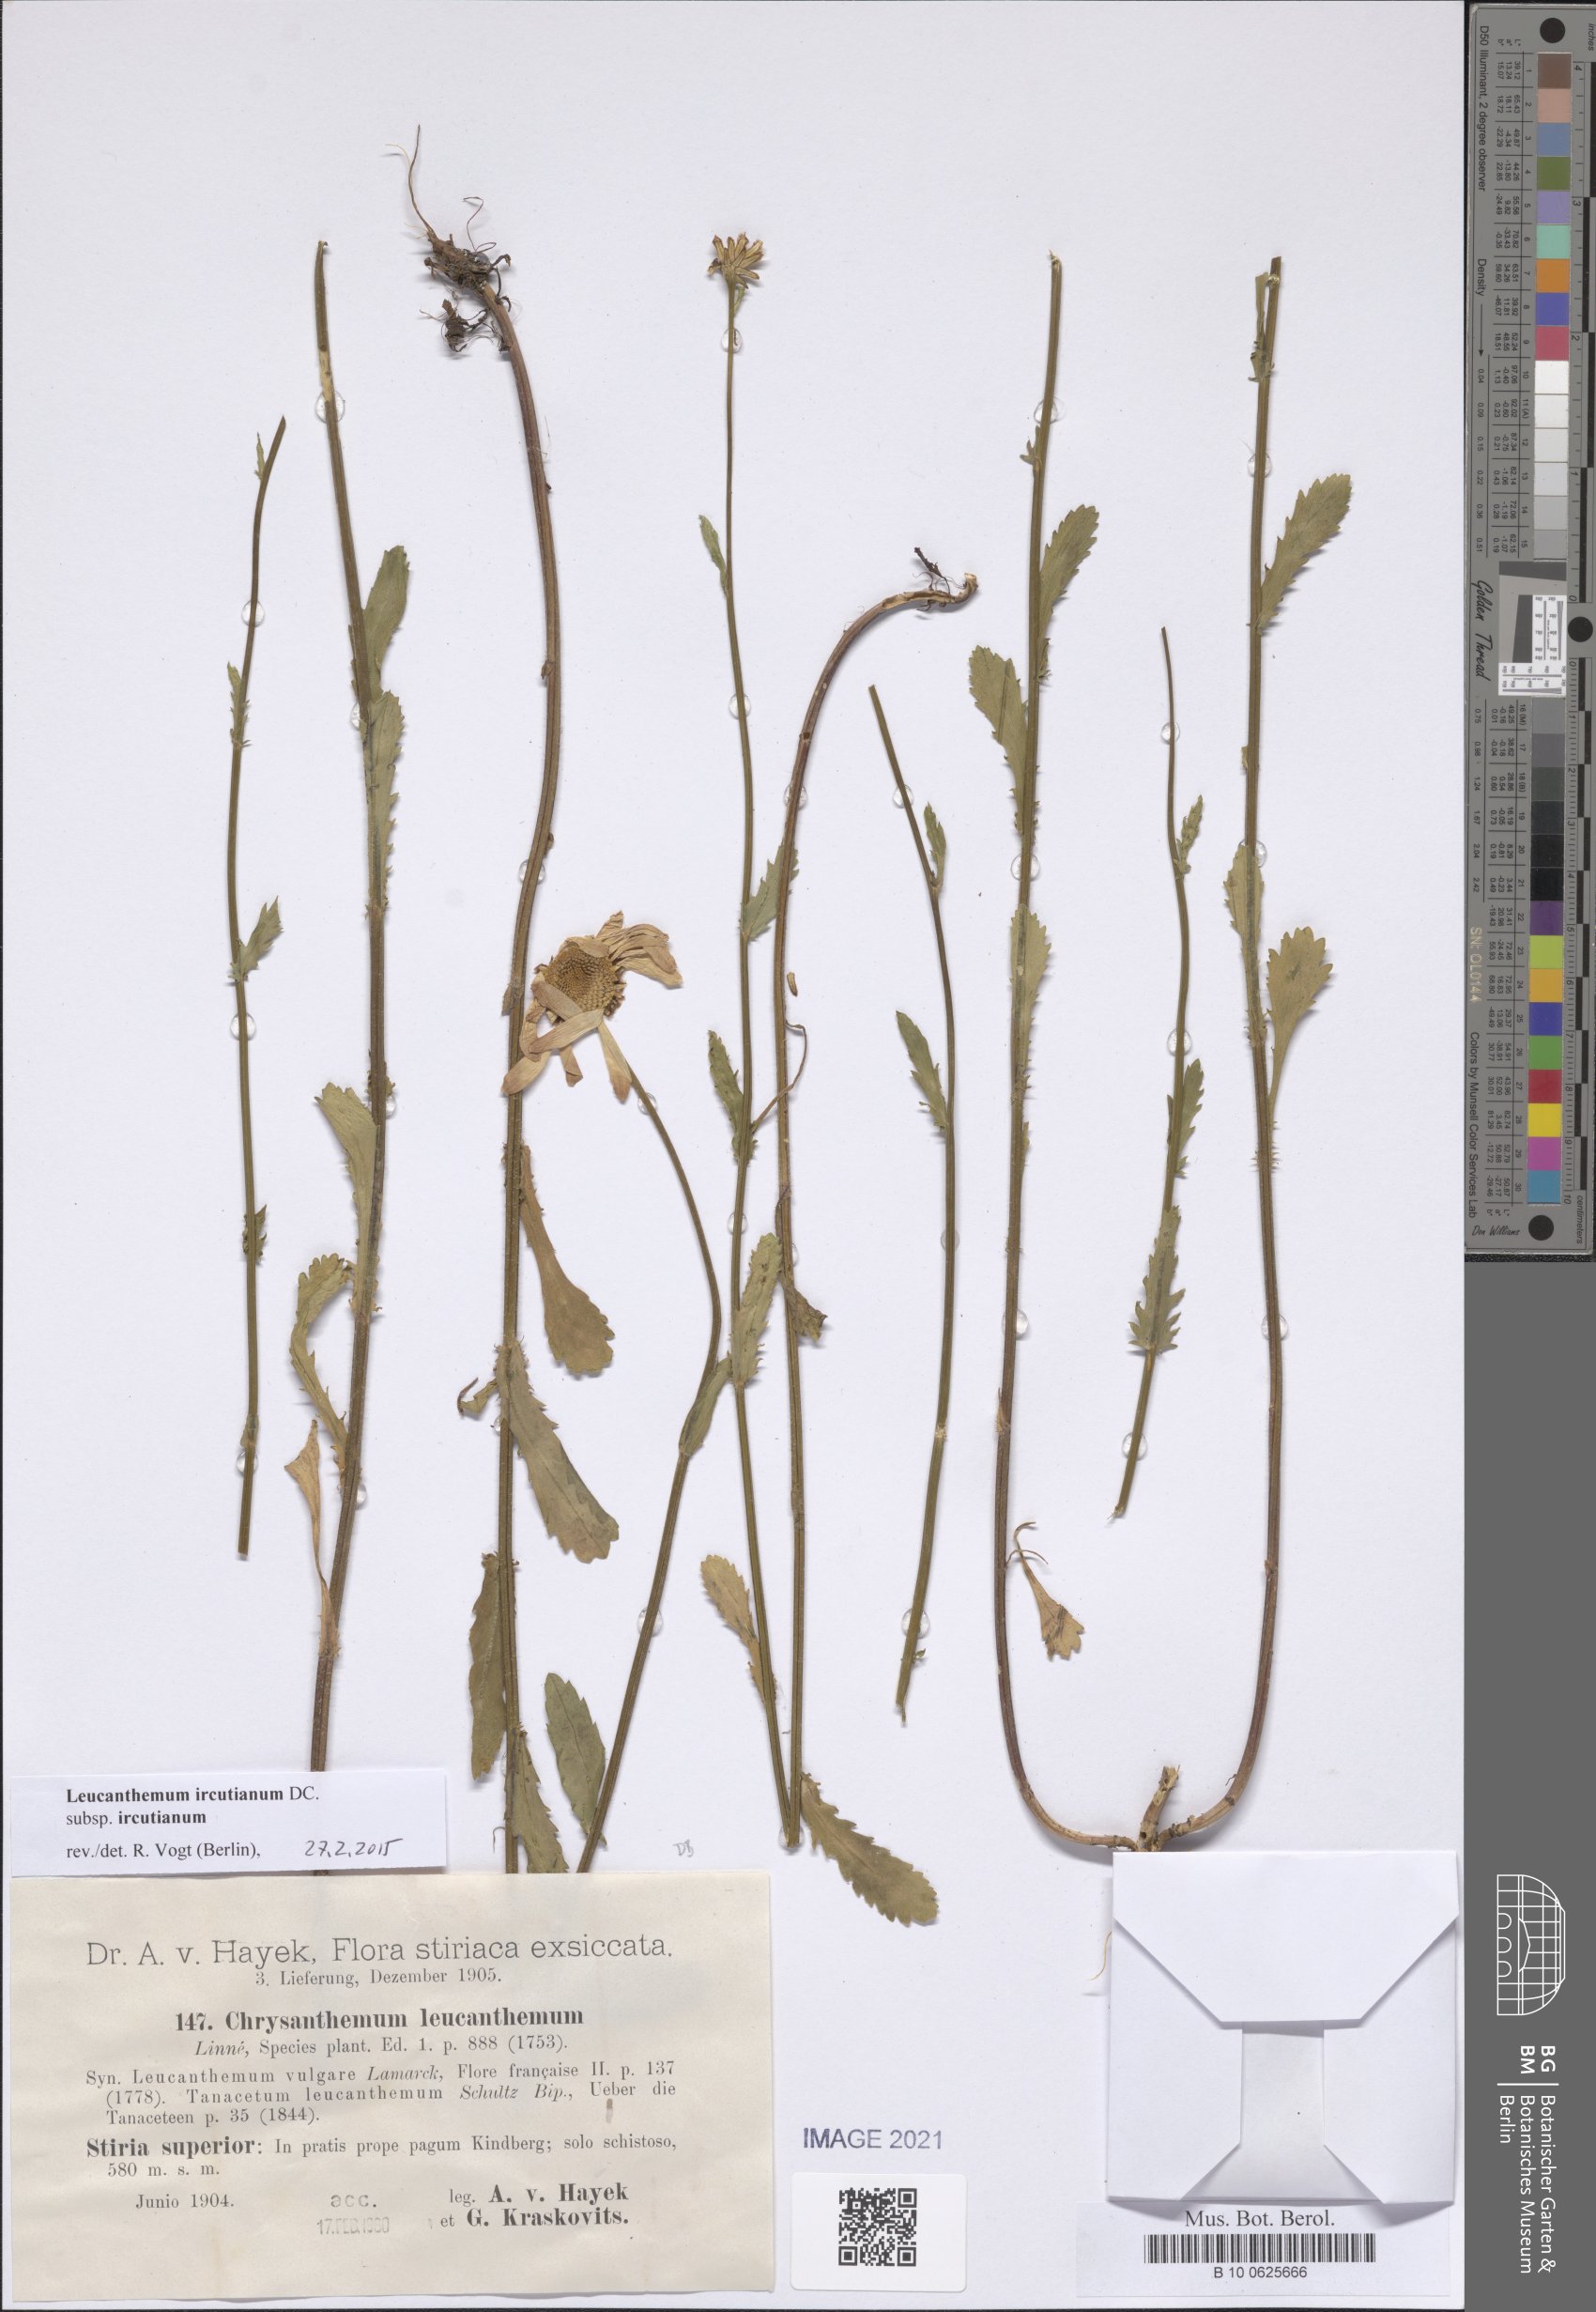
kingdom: Plantae
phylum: Tracheophyta
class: Magnoliopsida
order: Asterales
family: Asteraceae
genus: Leucanthemum
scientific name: Leucanthemum ircutianum
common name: Daisy
